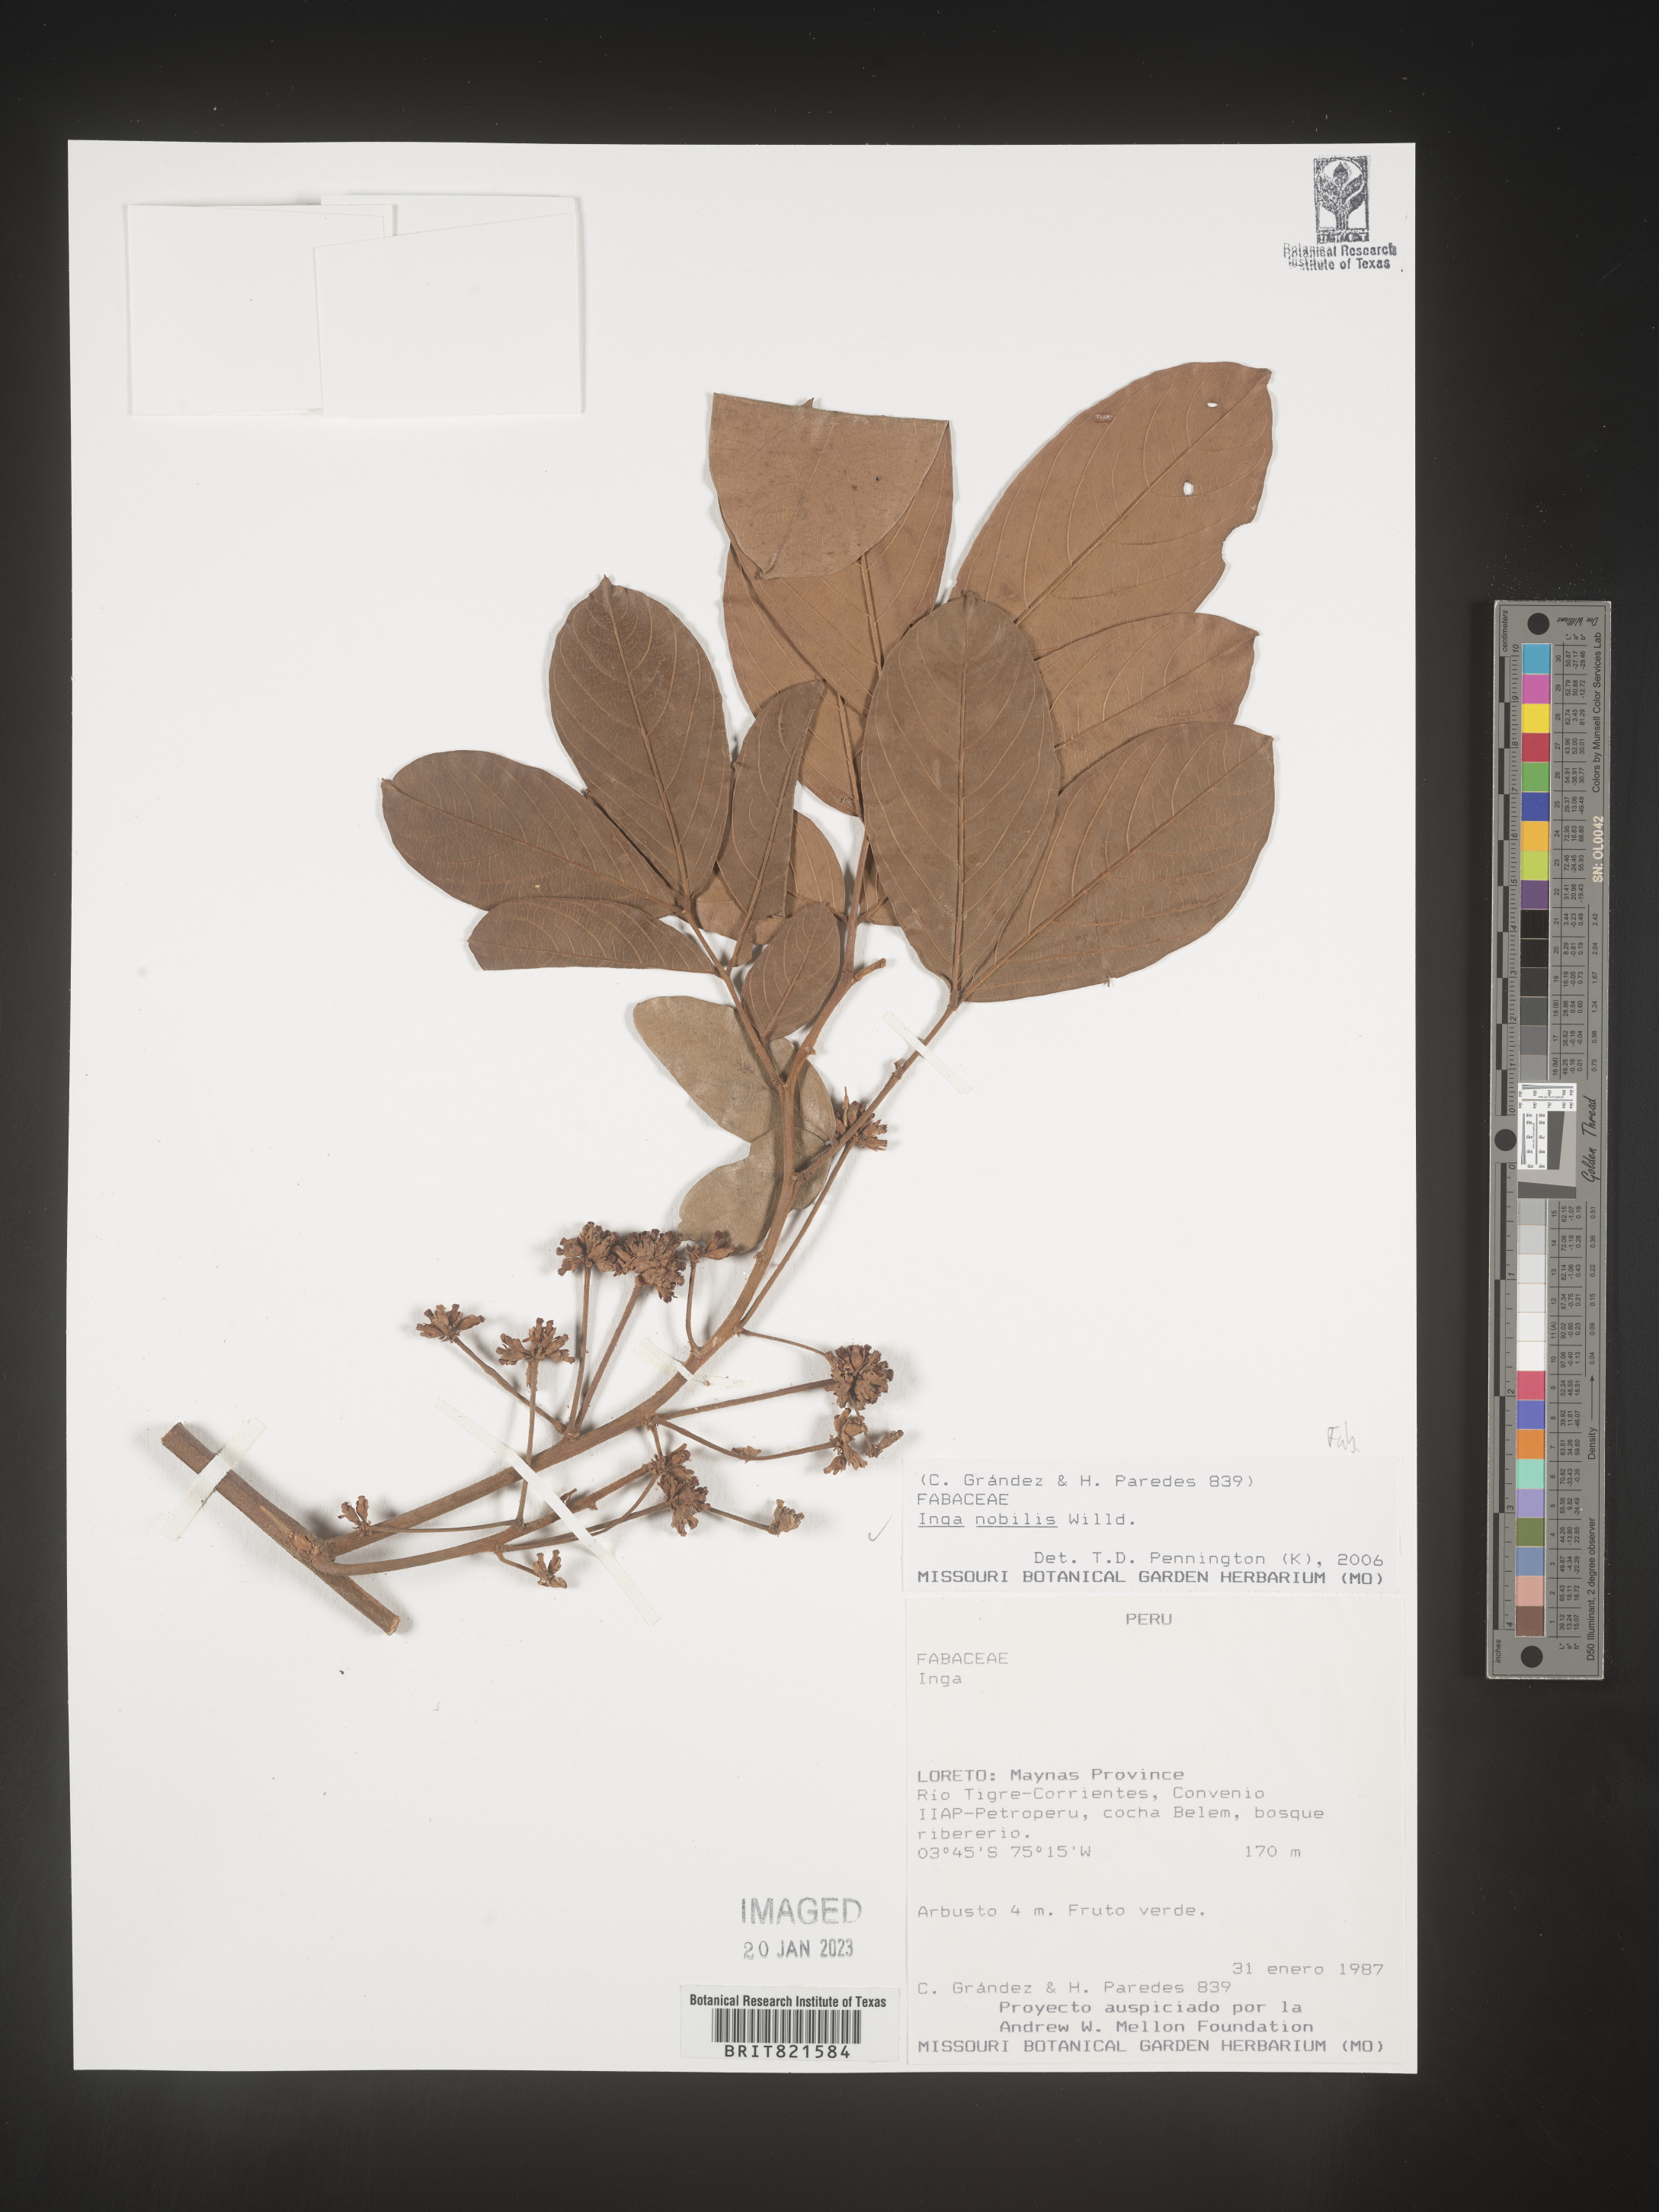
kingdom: Plantae
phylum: Tracheophyta
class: Magnoliopsida
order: Fabales
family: Fabaceae
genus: Inga
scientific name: Inga
